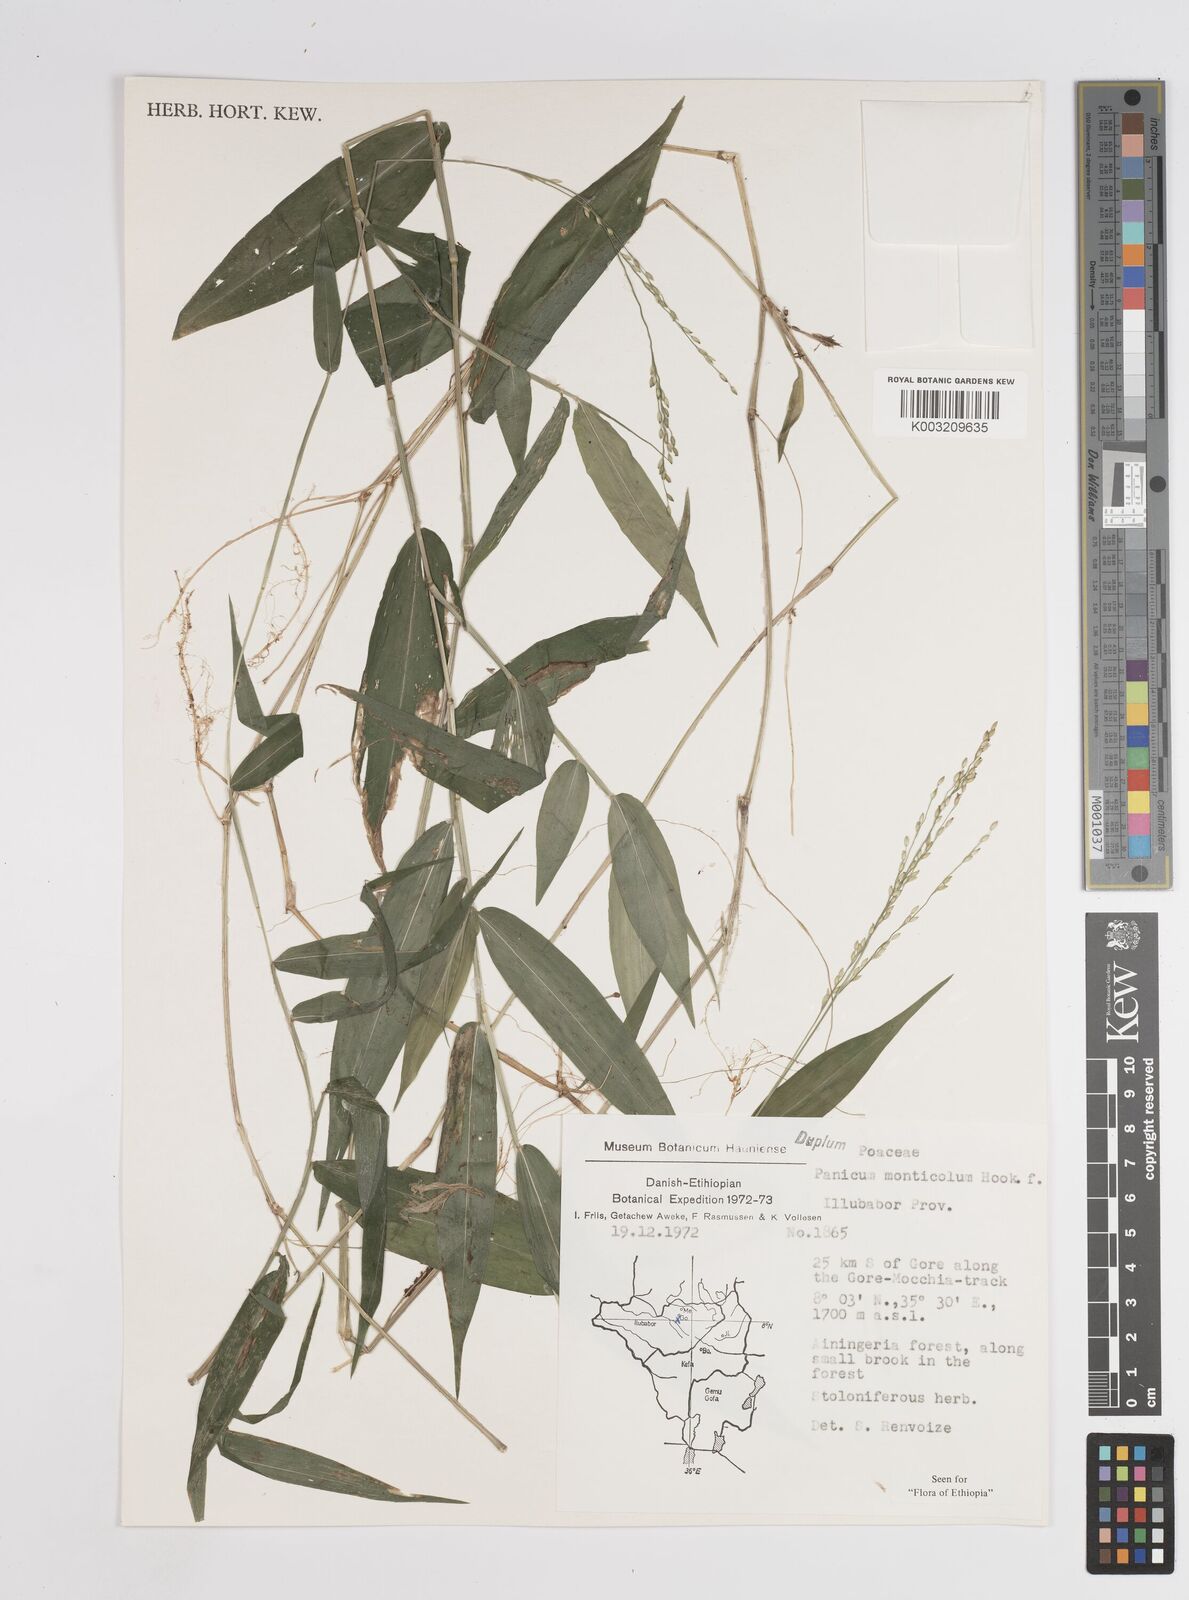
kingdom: Plantae
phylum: Tracheophyta
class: Liliopsida
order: Poales
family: Poaceae
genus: Panicum
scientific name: Panicum monticola
